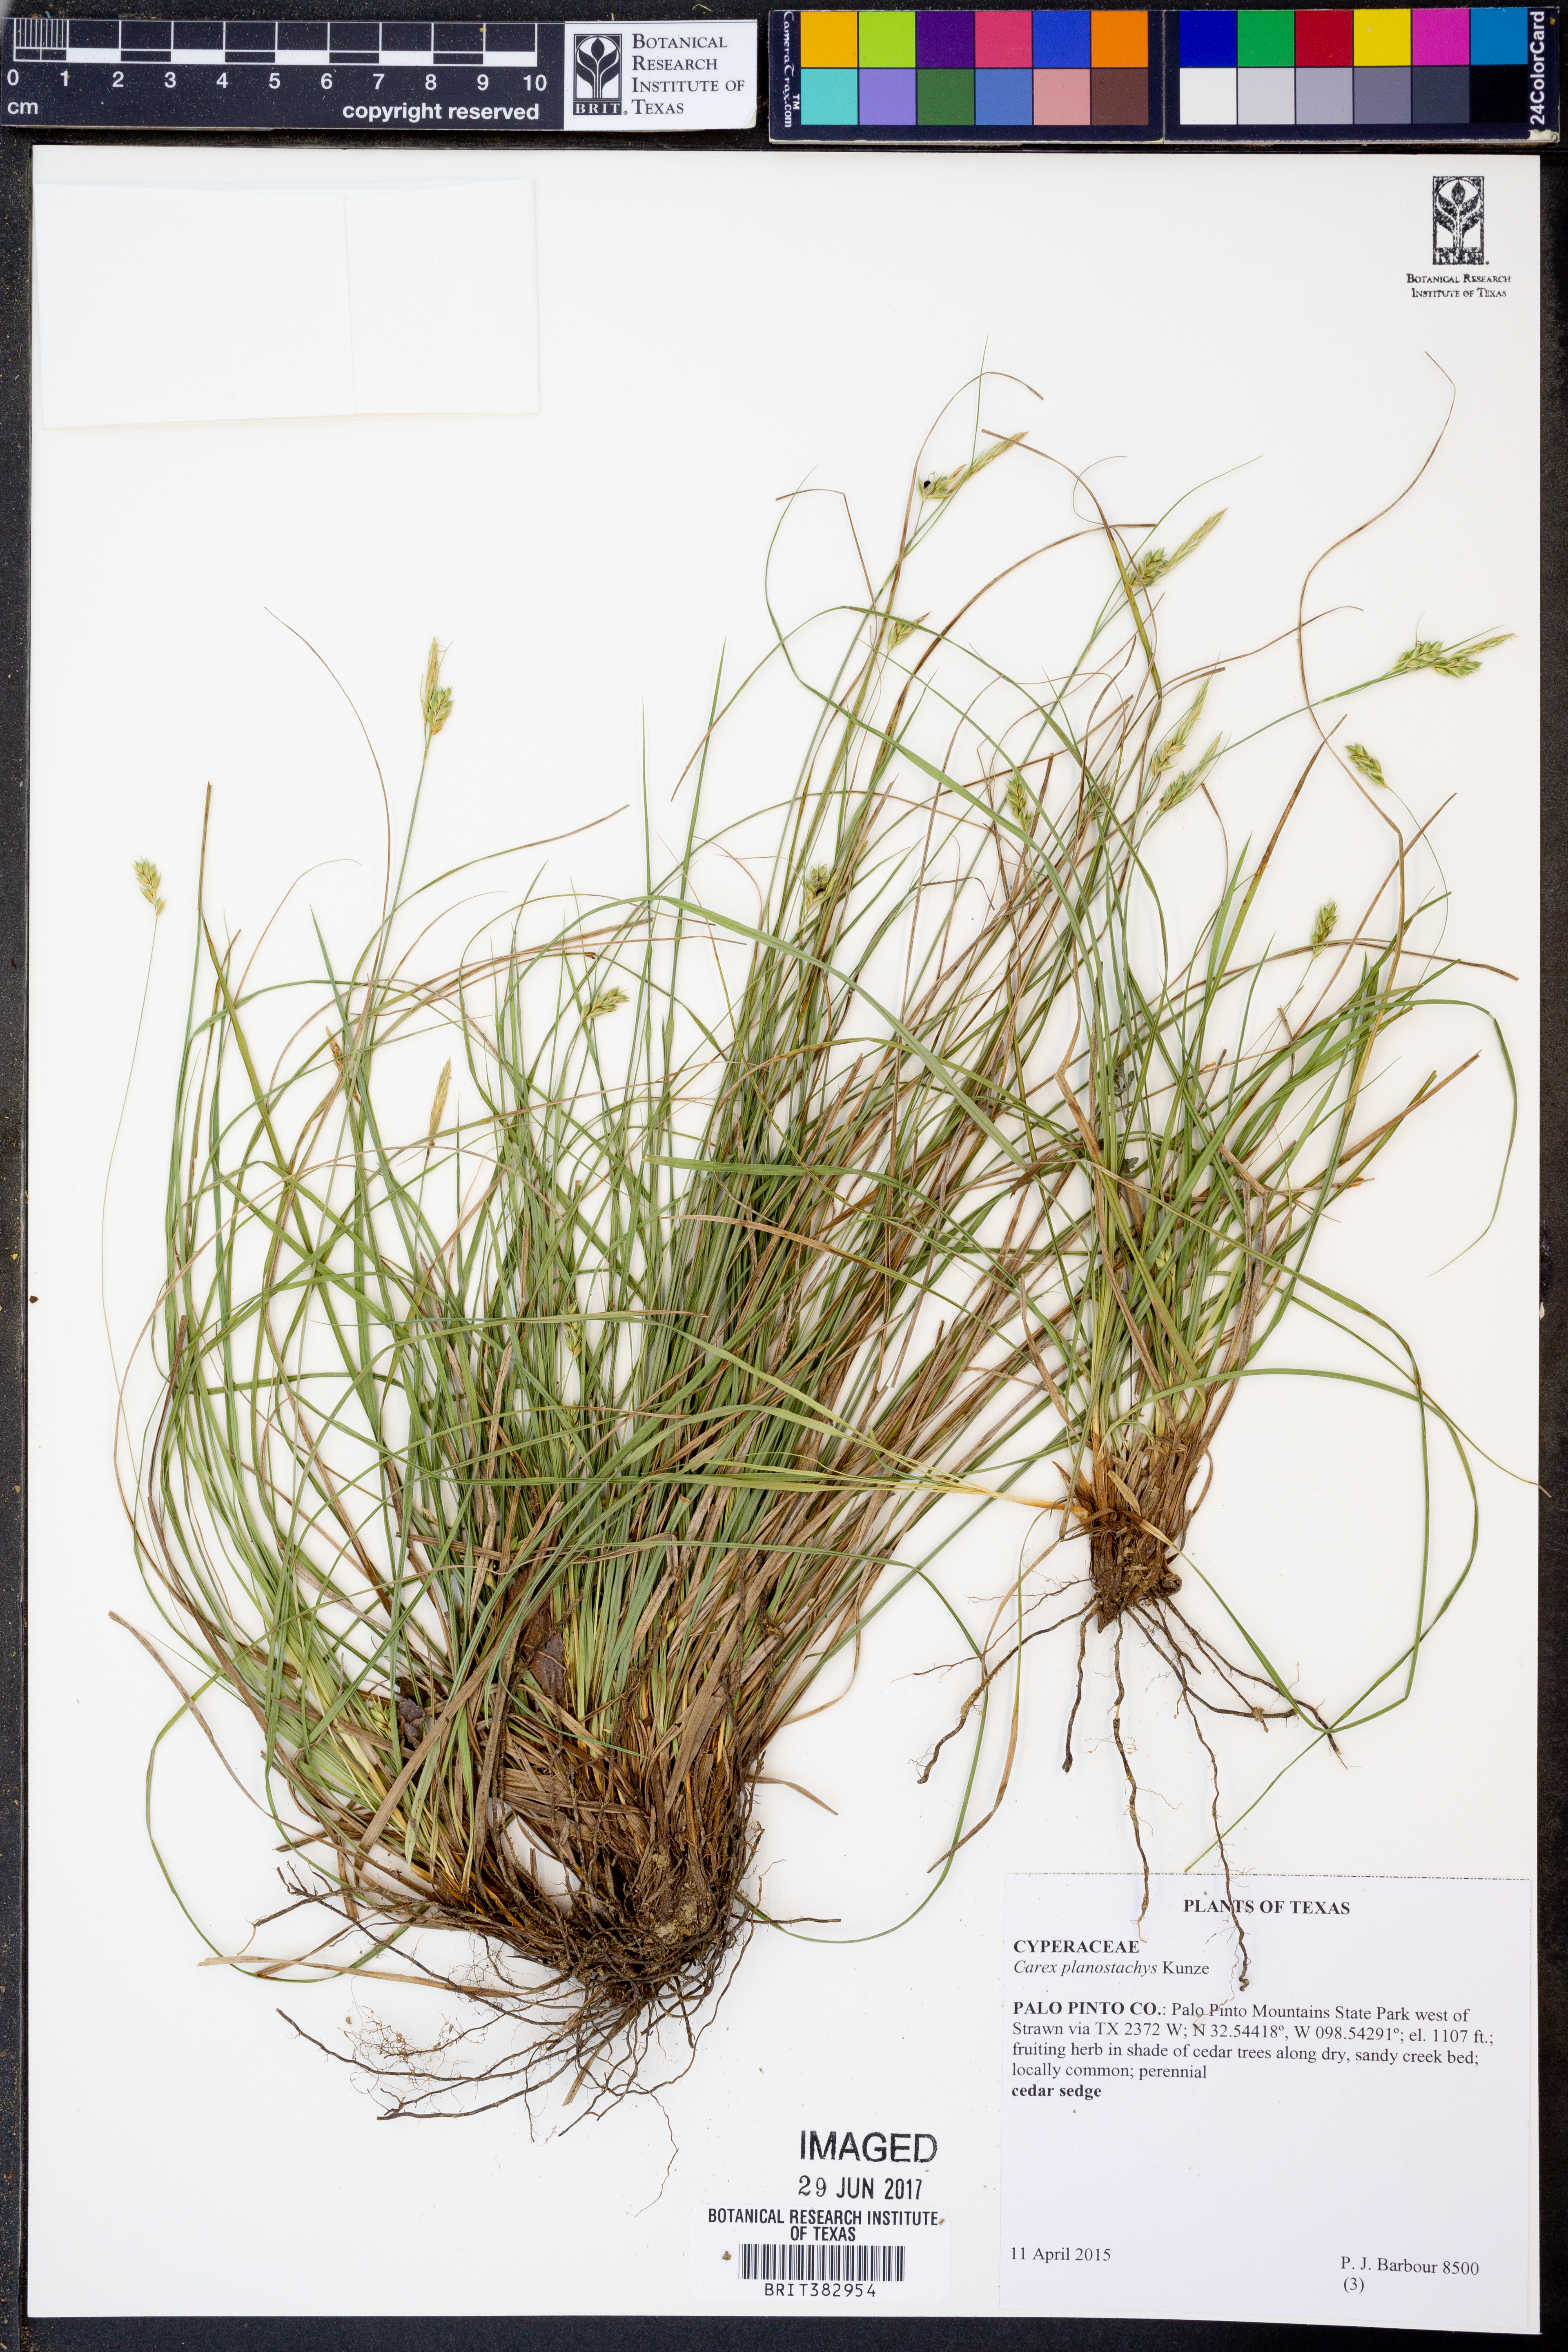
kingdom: Plantae
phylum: Tracheophyta
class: Liliopsida
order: Poales
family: Cyperaceae
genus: Carex
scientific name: Carex planostachys
